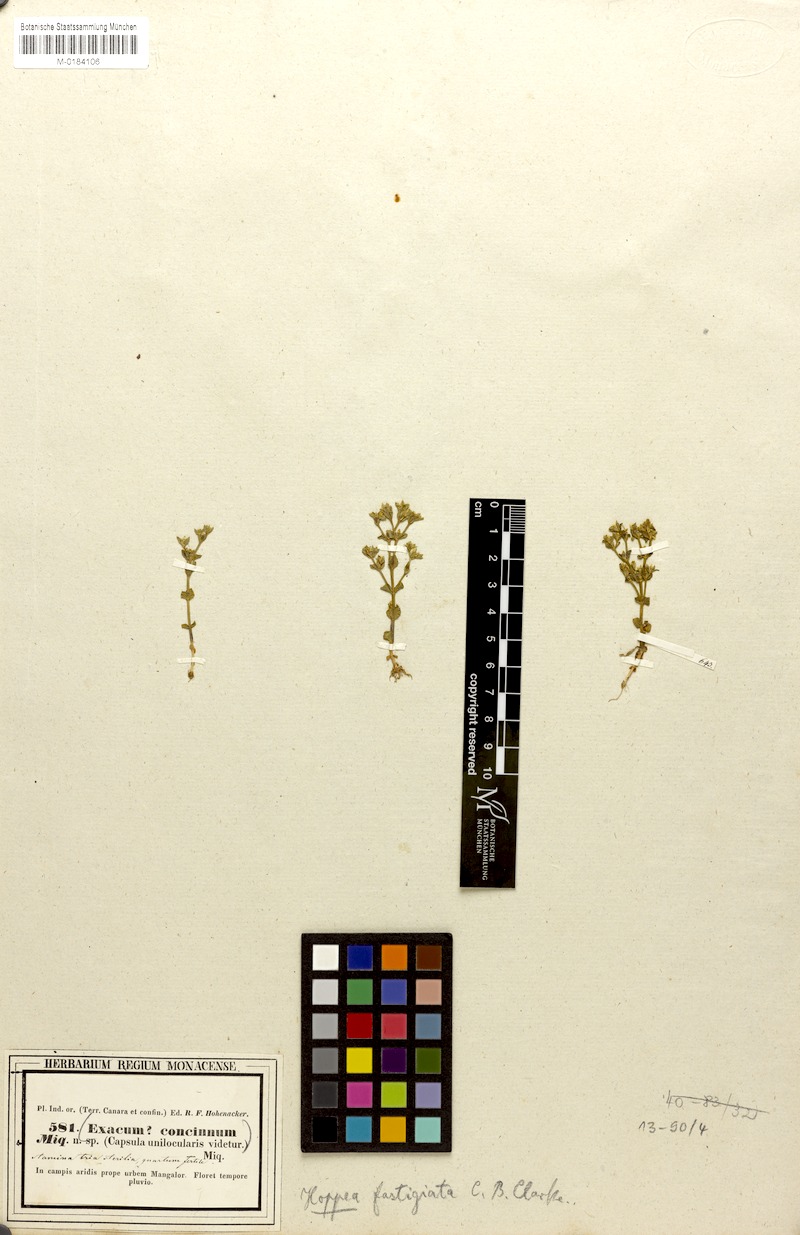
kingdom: Plantae
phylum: Tracheophyta
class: Magnoliopsida
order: Gentianales
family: Gentianaceae
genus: Hoppea
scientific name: Hoppea fastigiata
